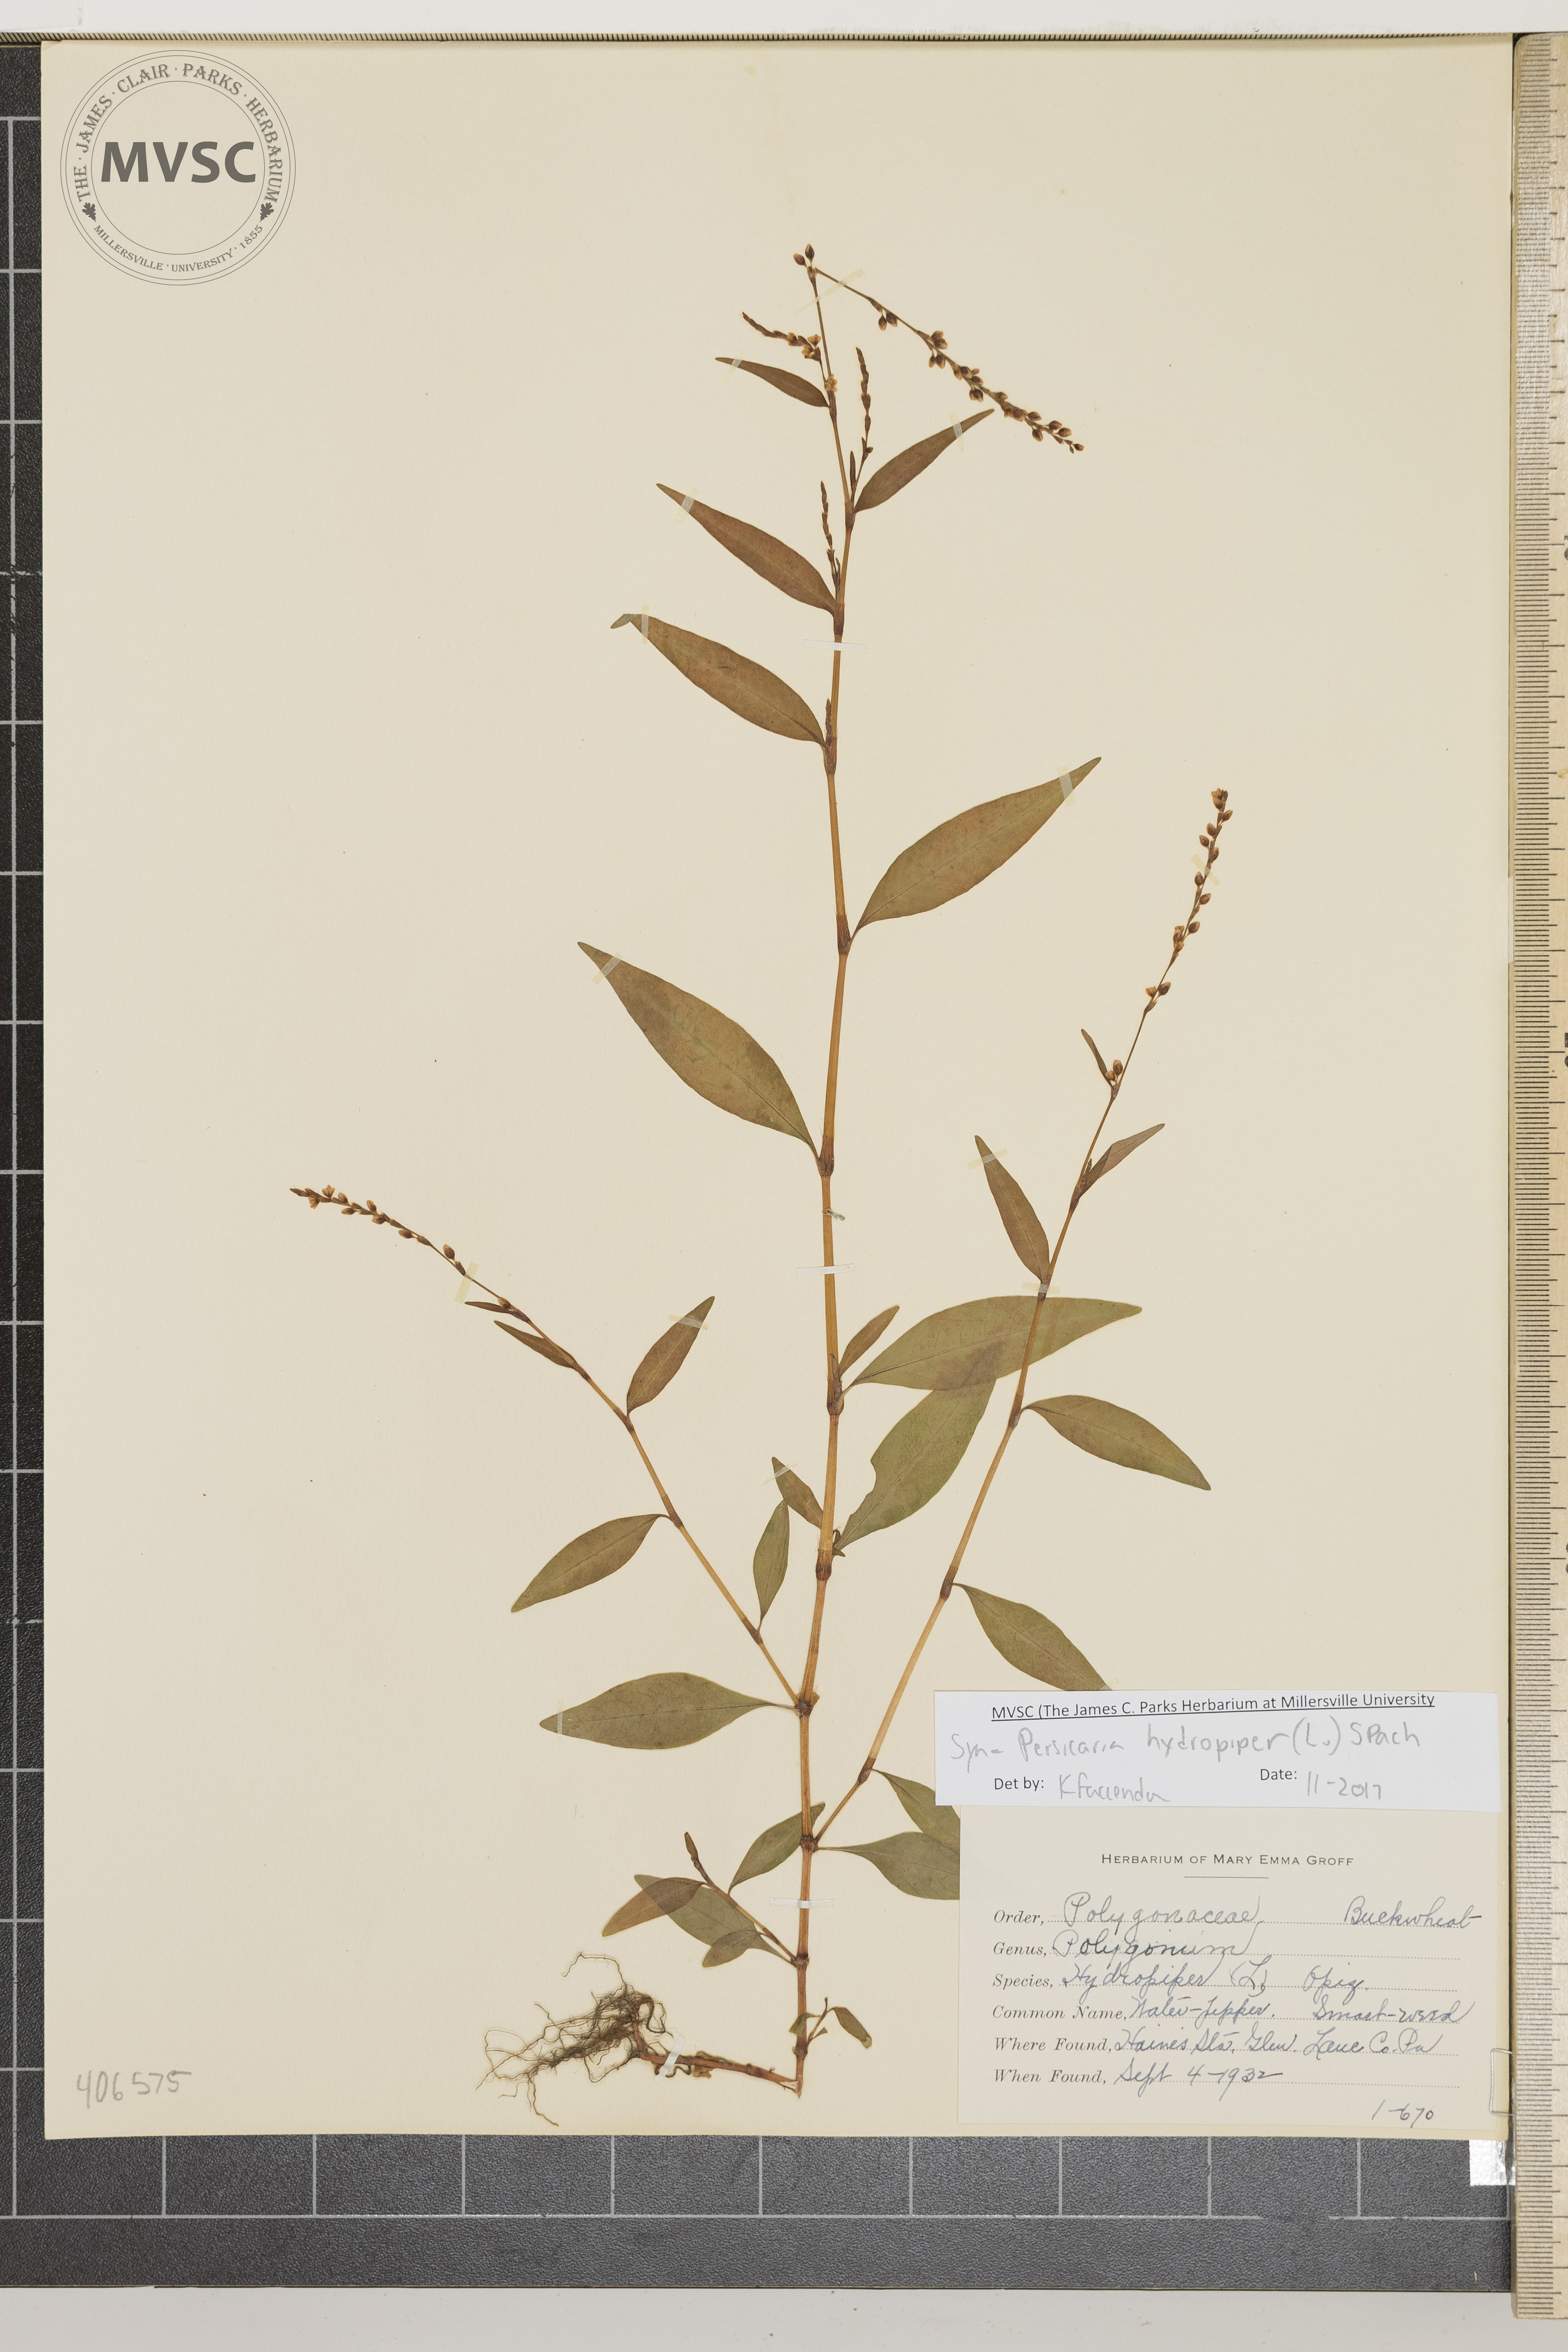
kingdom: Plantae
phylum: Tracheophyta
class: Magnoliopsida
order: Caryophyllales
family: Polygonaceae
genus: Persicaria
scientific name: Persicaria hydropiper
